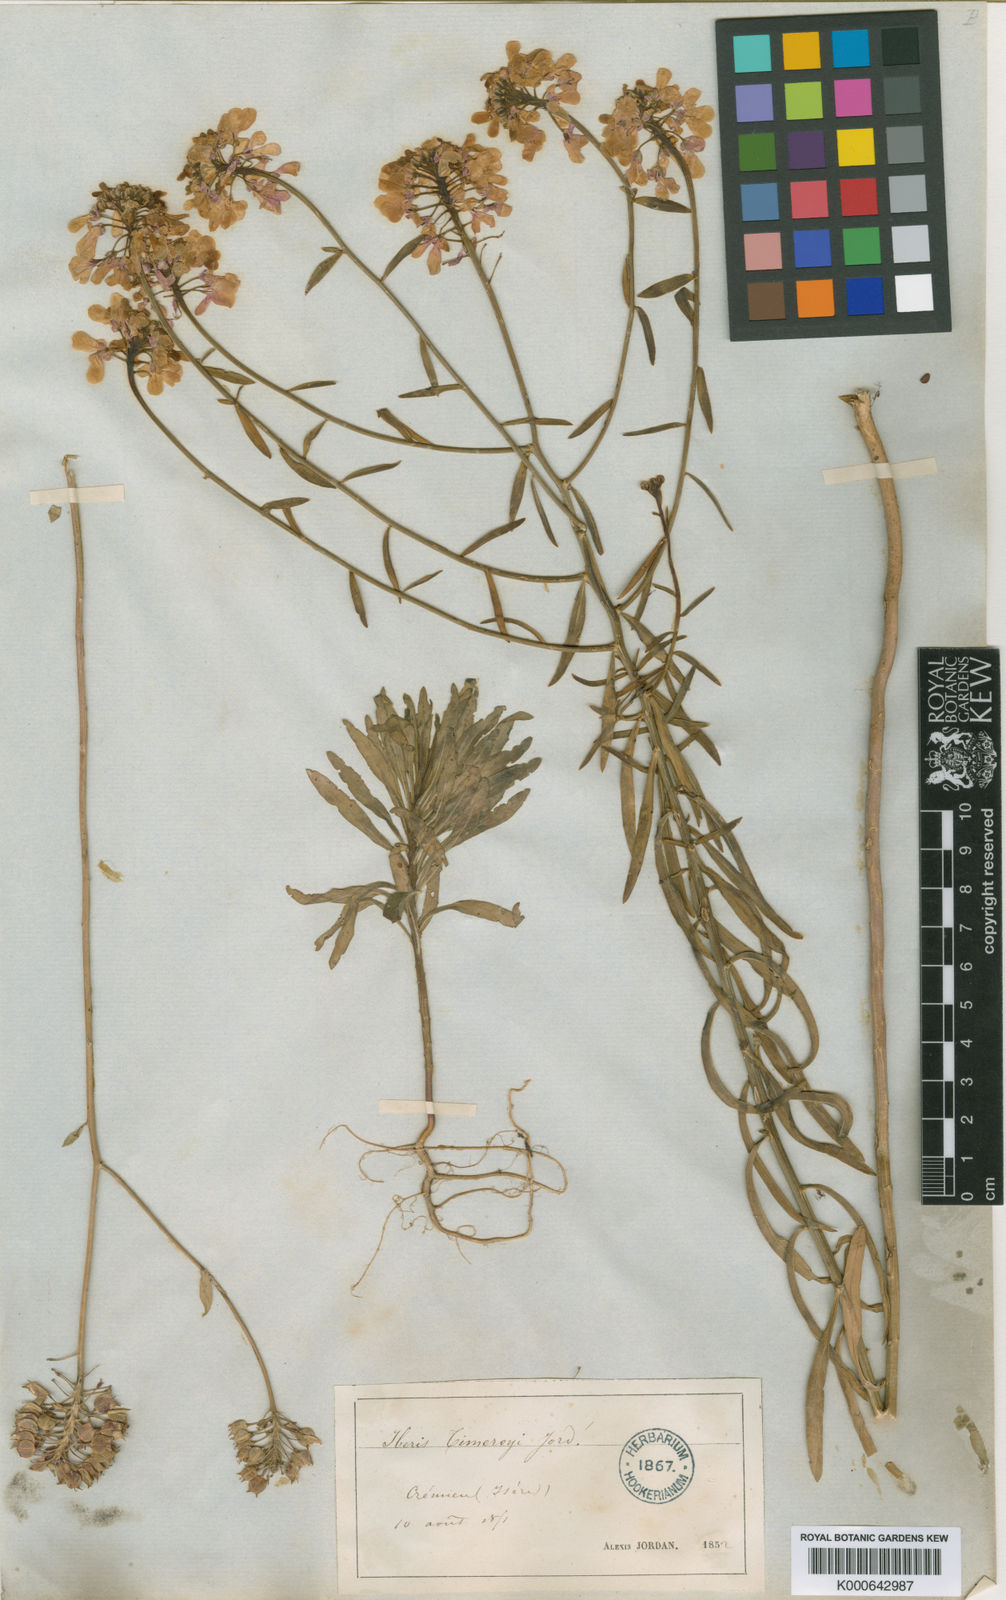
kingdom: Plantae
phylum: Tracheophyta
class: Magnoliopsida
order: Brassicales
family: Brassicaceae
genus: Iberis
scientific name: Iberis linifolia
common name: Candytuft
